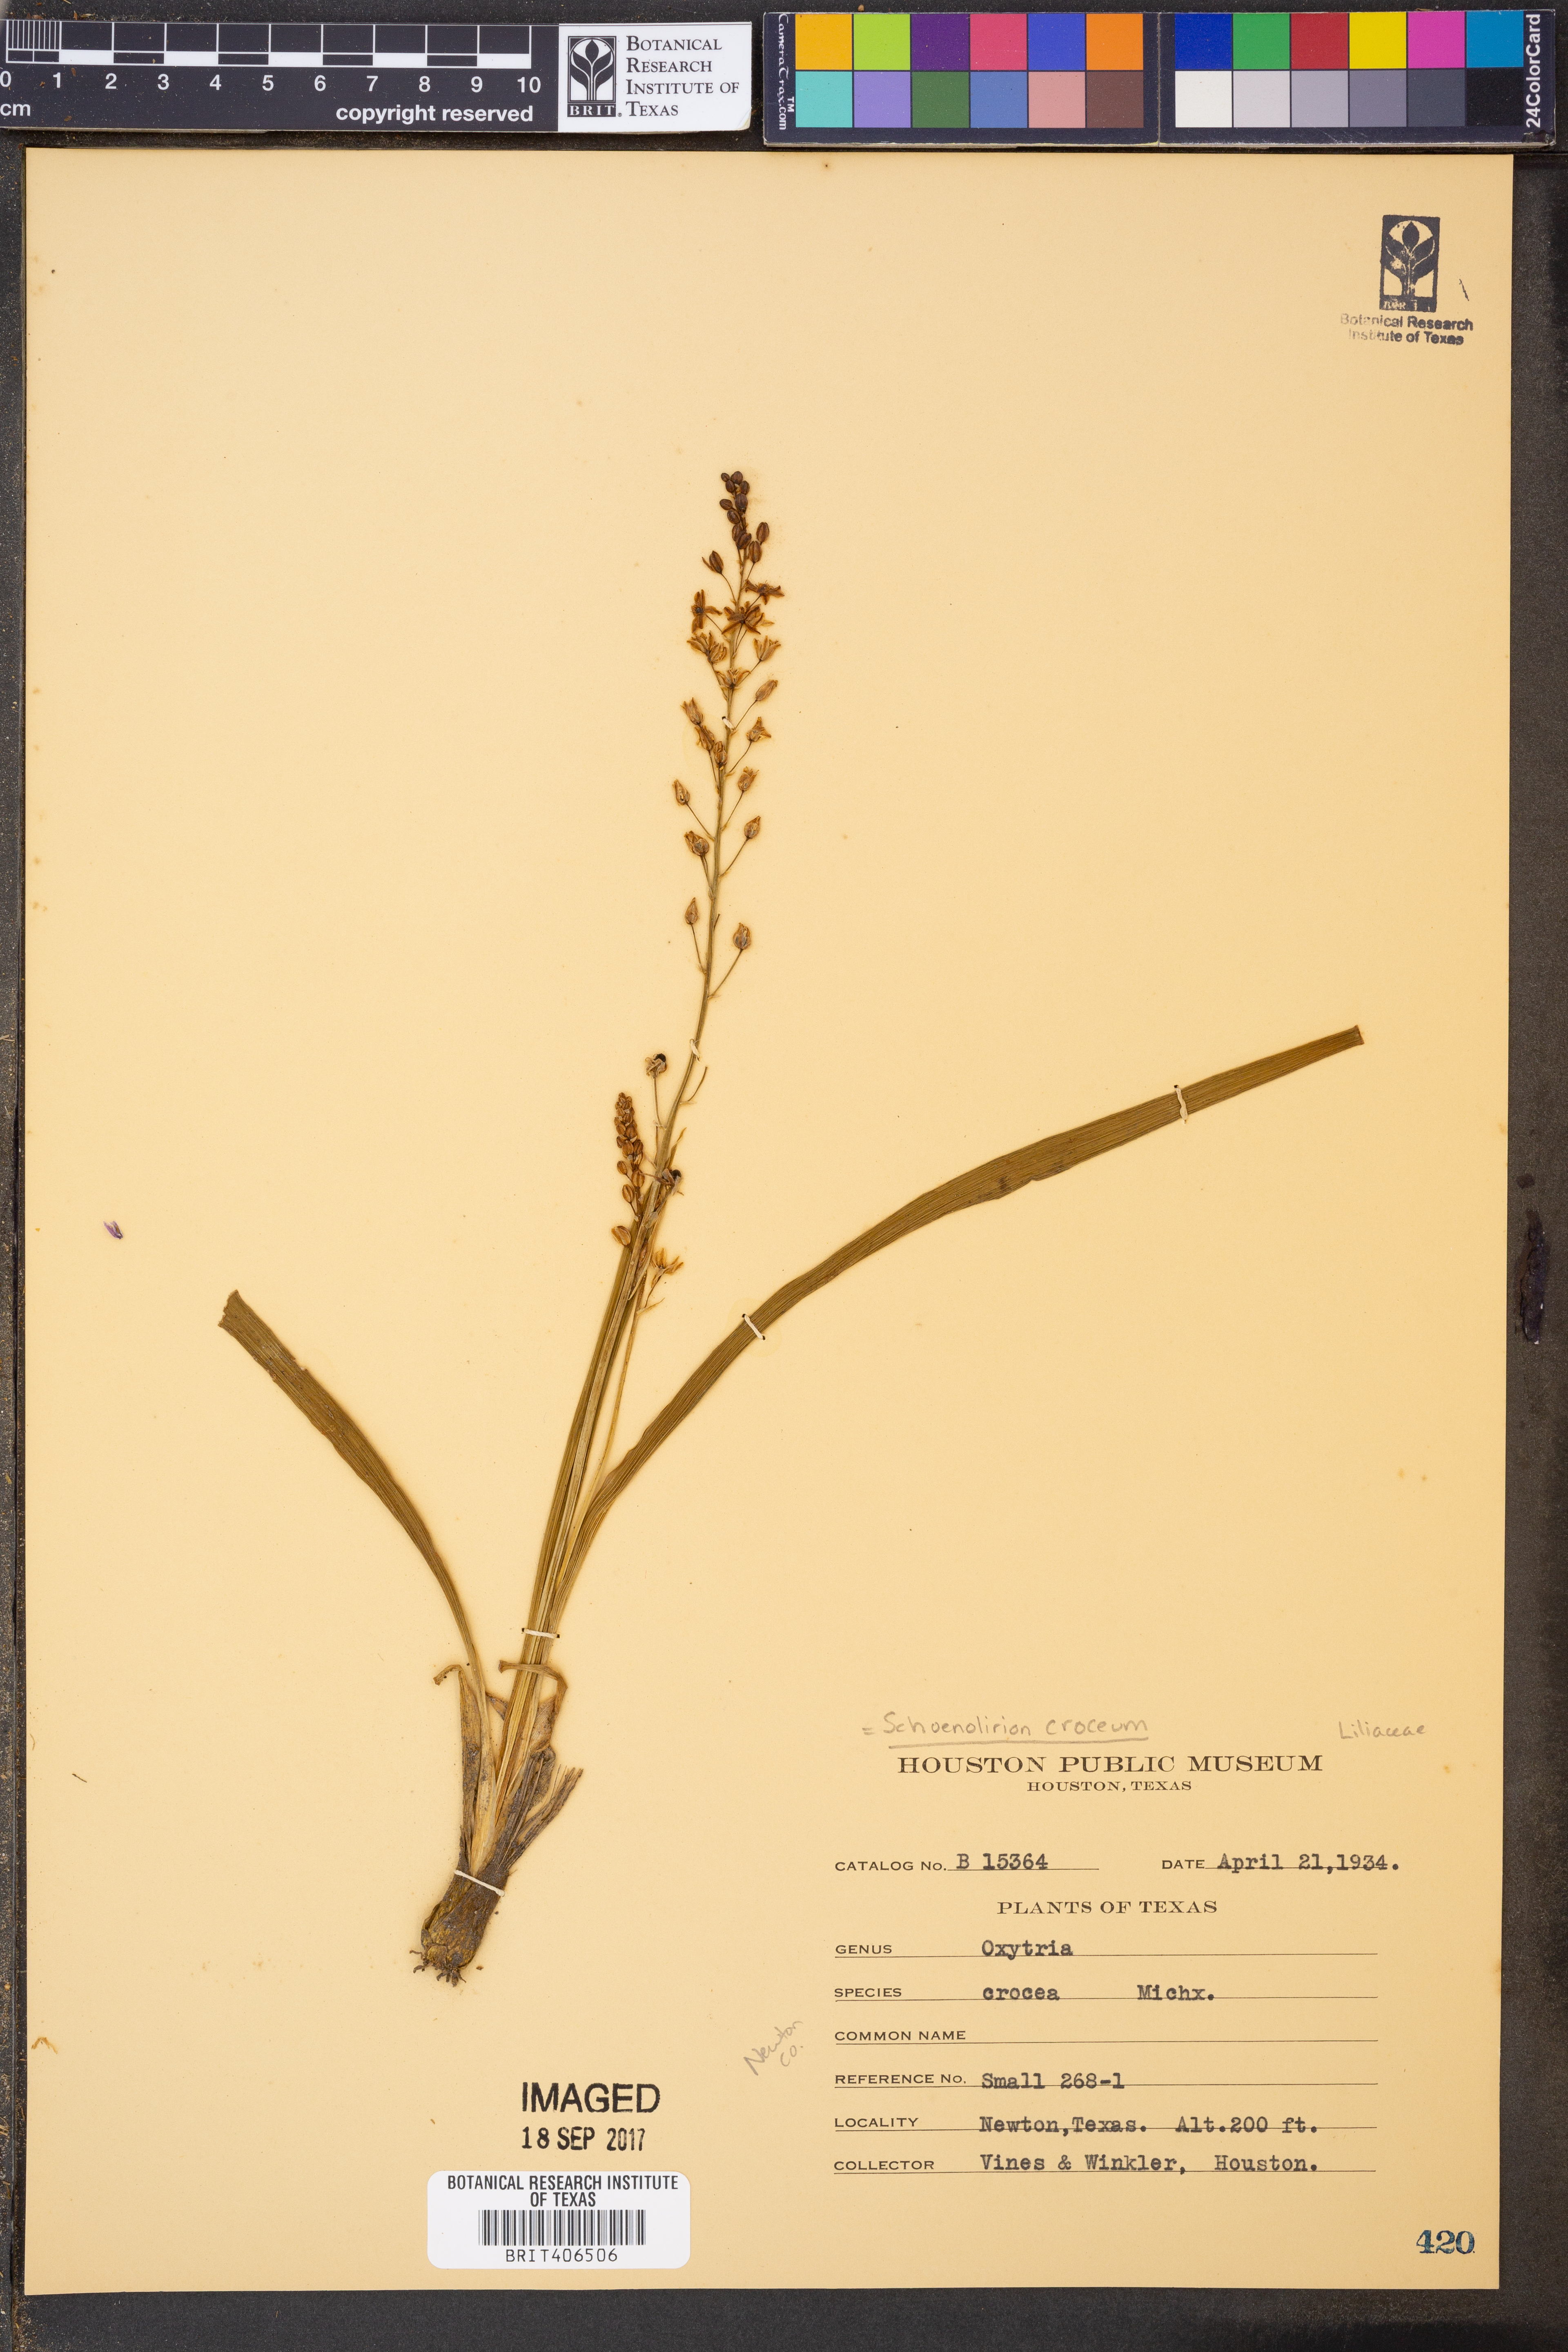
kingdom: Plantae
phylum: Tracheophyta
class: Liliopsida
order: Asparagales
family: Asparagaceae
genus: Schoenolirion
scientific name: Schoenolirion croceum
